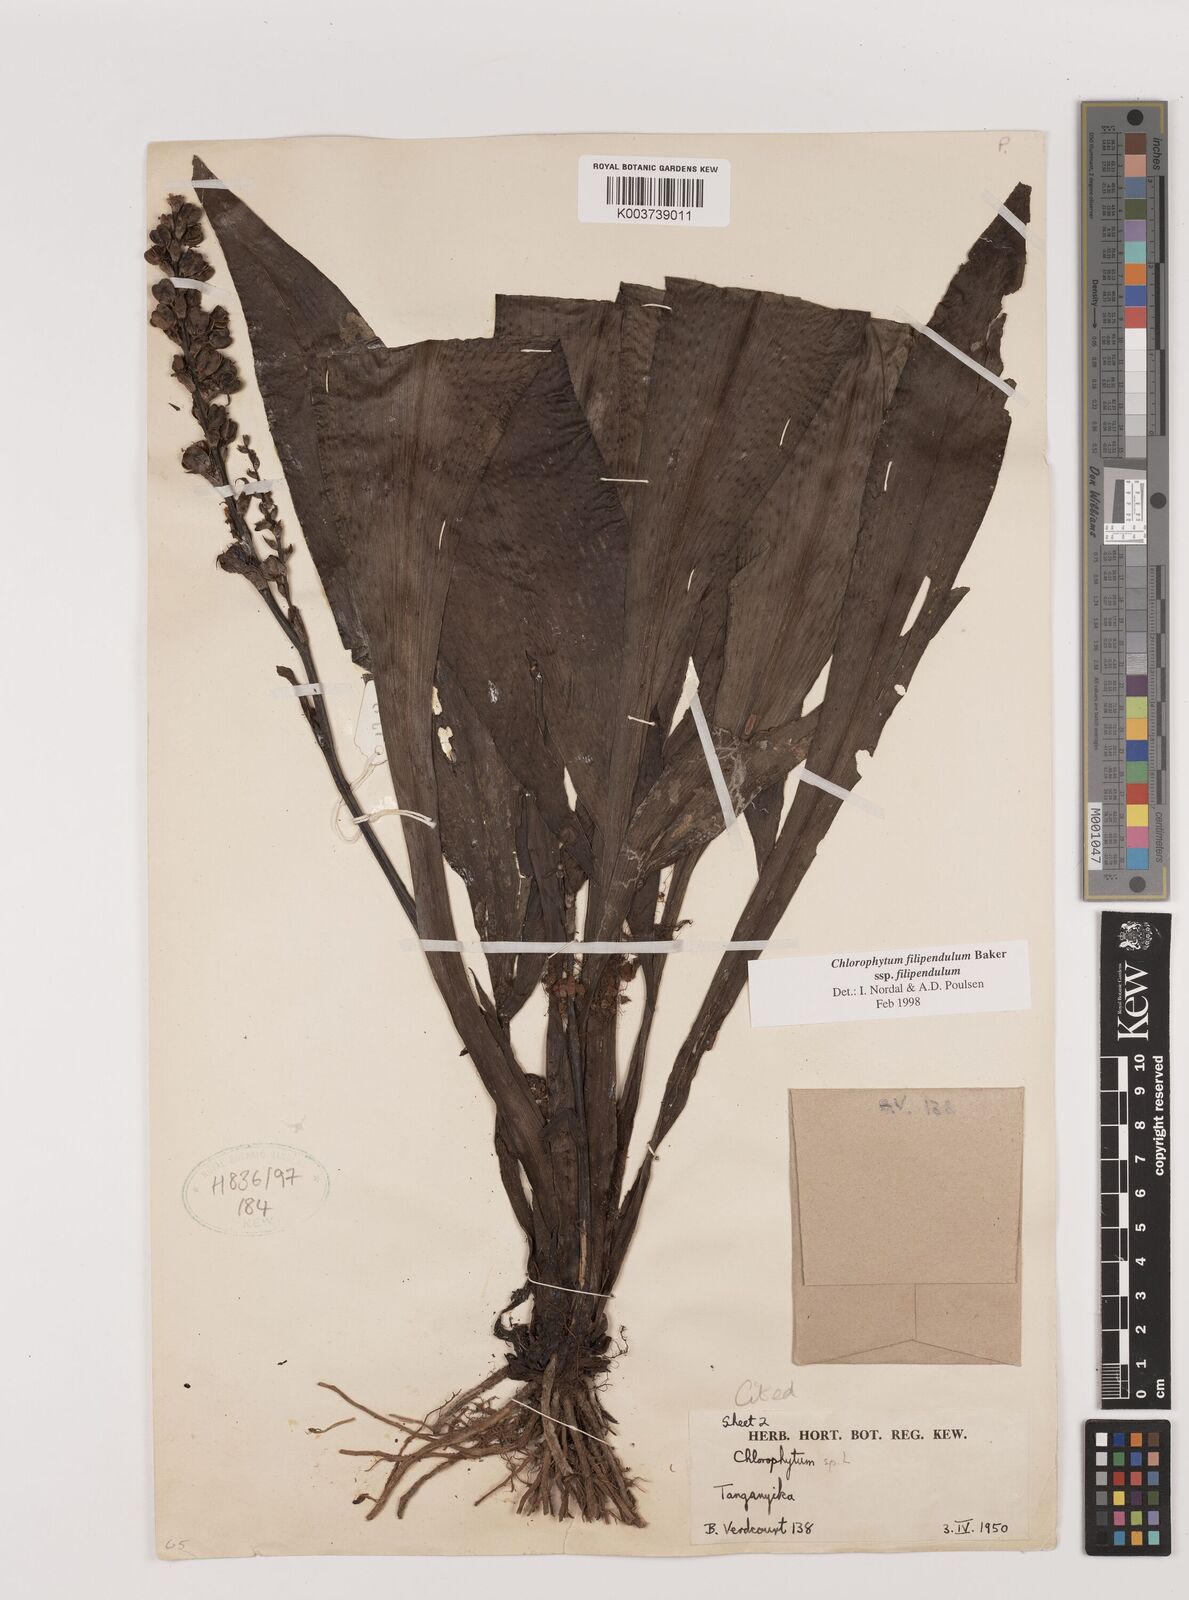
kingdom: Plantae
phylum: Tracheophyta
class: Liliopsida
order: Asparagales
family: Asparagaceae
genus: Chlorophytum
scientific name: Chlorophytum filipendulum
